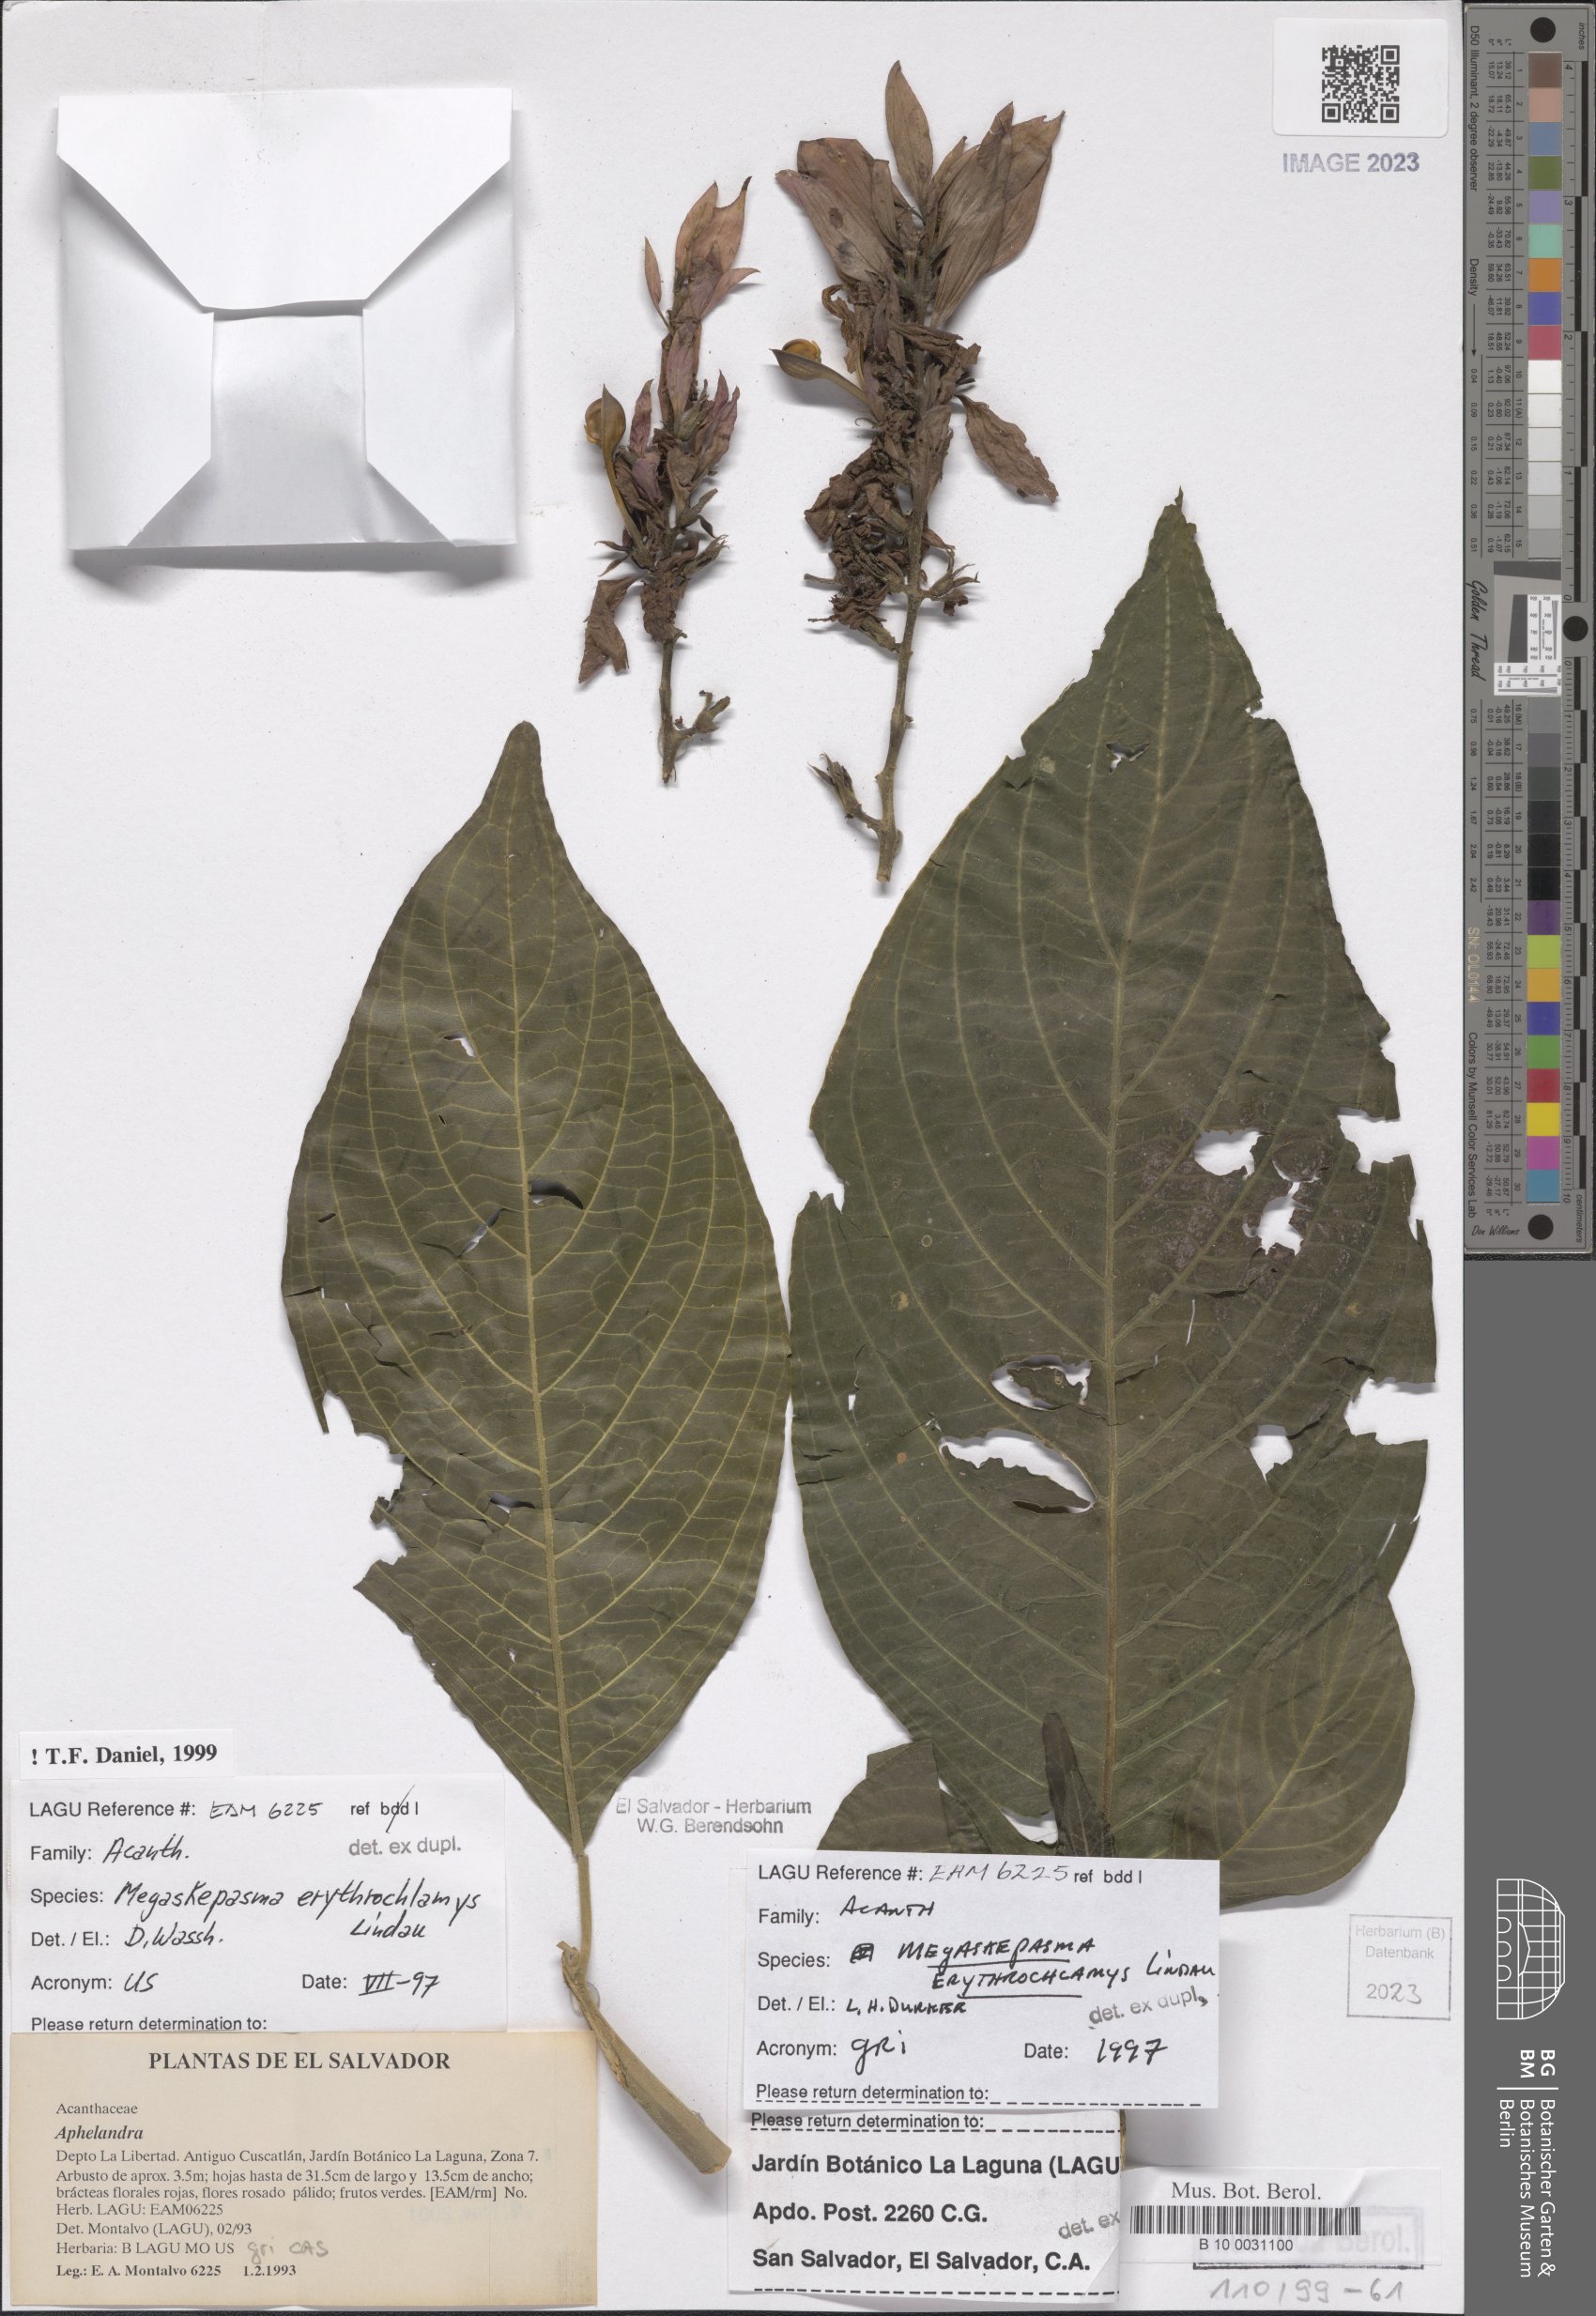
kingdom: Plantae
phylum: Tracheophyta
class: Magnoliopsida
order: Lamiales
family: Acanthaceae
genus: Megaskepasma
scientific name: Megaskepasma erythrochlamys
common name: Brazilian red-cloak
